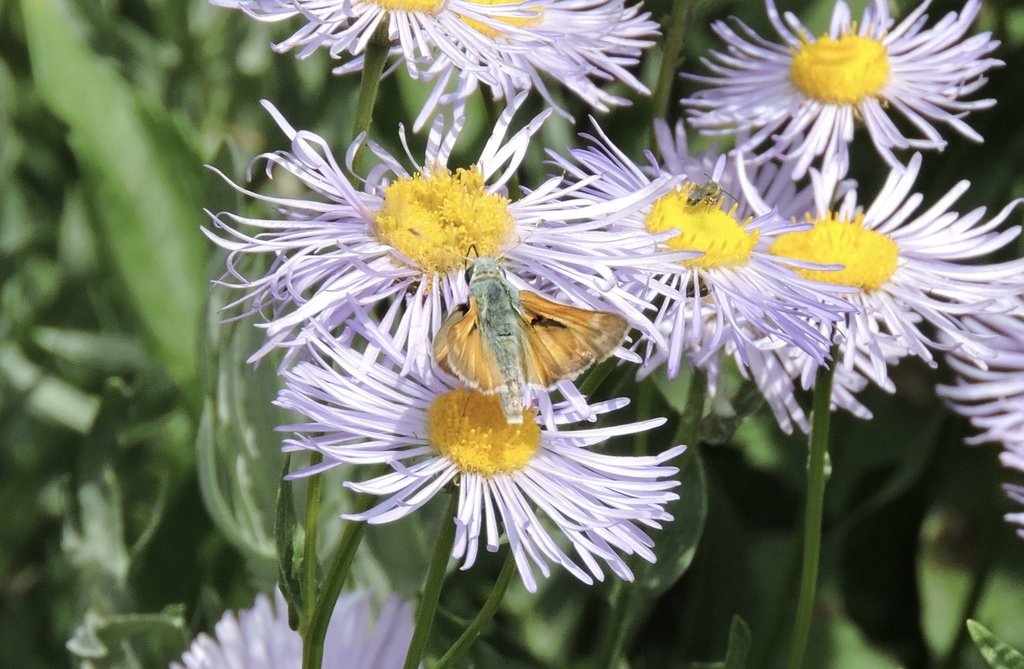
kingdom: Animalia
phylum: Arthropoda
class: Insecta
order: Lepidoptera
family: Hesperiidae
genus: Hesperia
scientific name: Hesperia comma
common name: Western Branded Skipper
